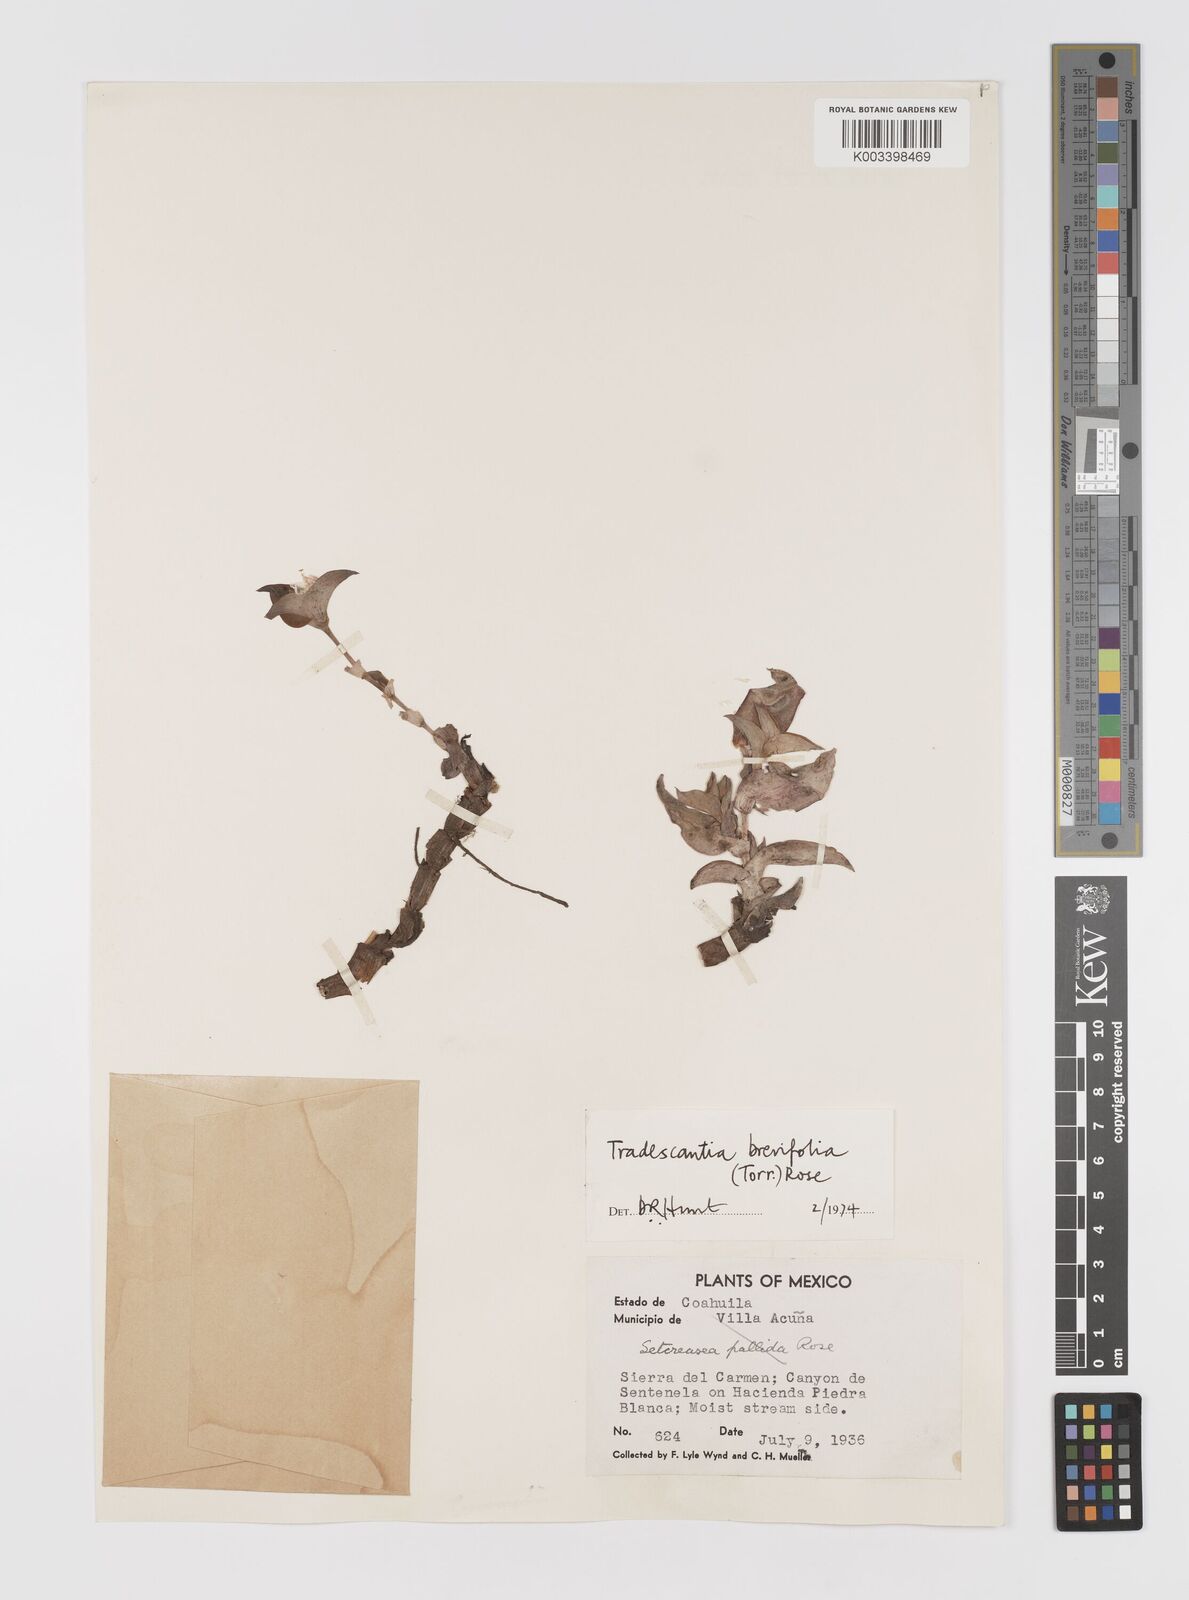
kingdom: Plantae
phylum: Tracheophyta
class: Liliopsida
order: Commelinales
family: Commelinaceae
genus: Tradescantia
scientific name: Tradescantia brevifolia
